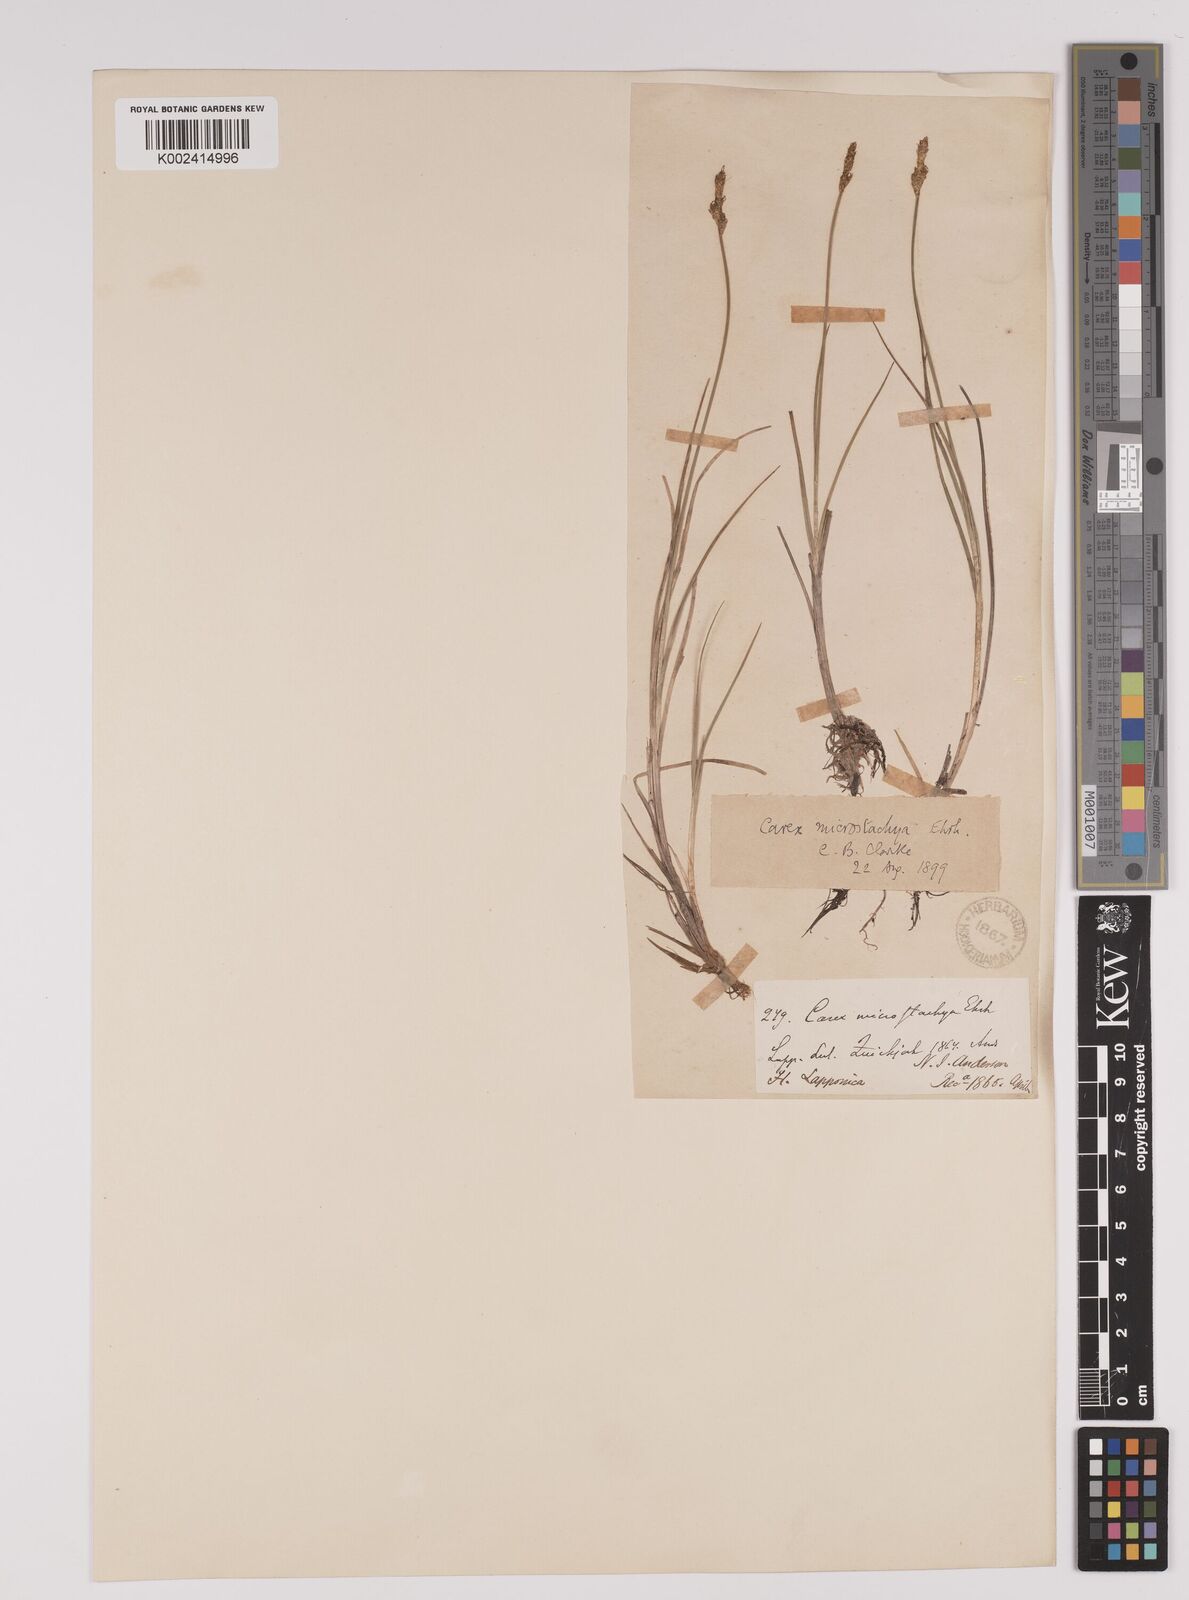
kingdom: Plantae
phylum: Tracheophyta
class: Liliopsida
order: Poales
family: Cyperaceae
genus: Carex
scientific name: Carex dioica
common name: Dioecious sedge
